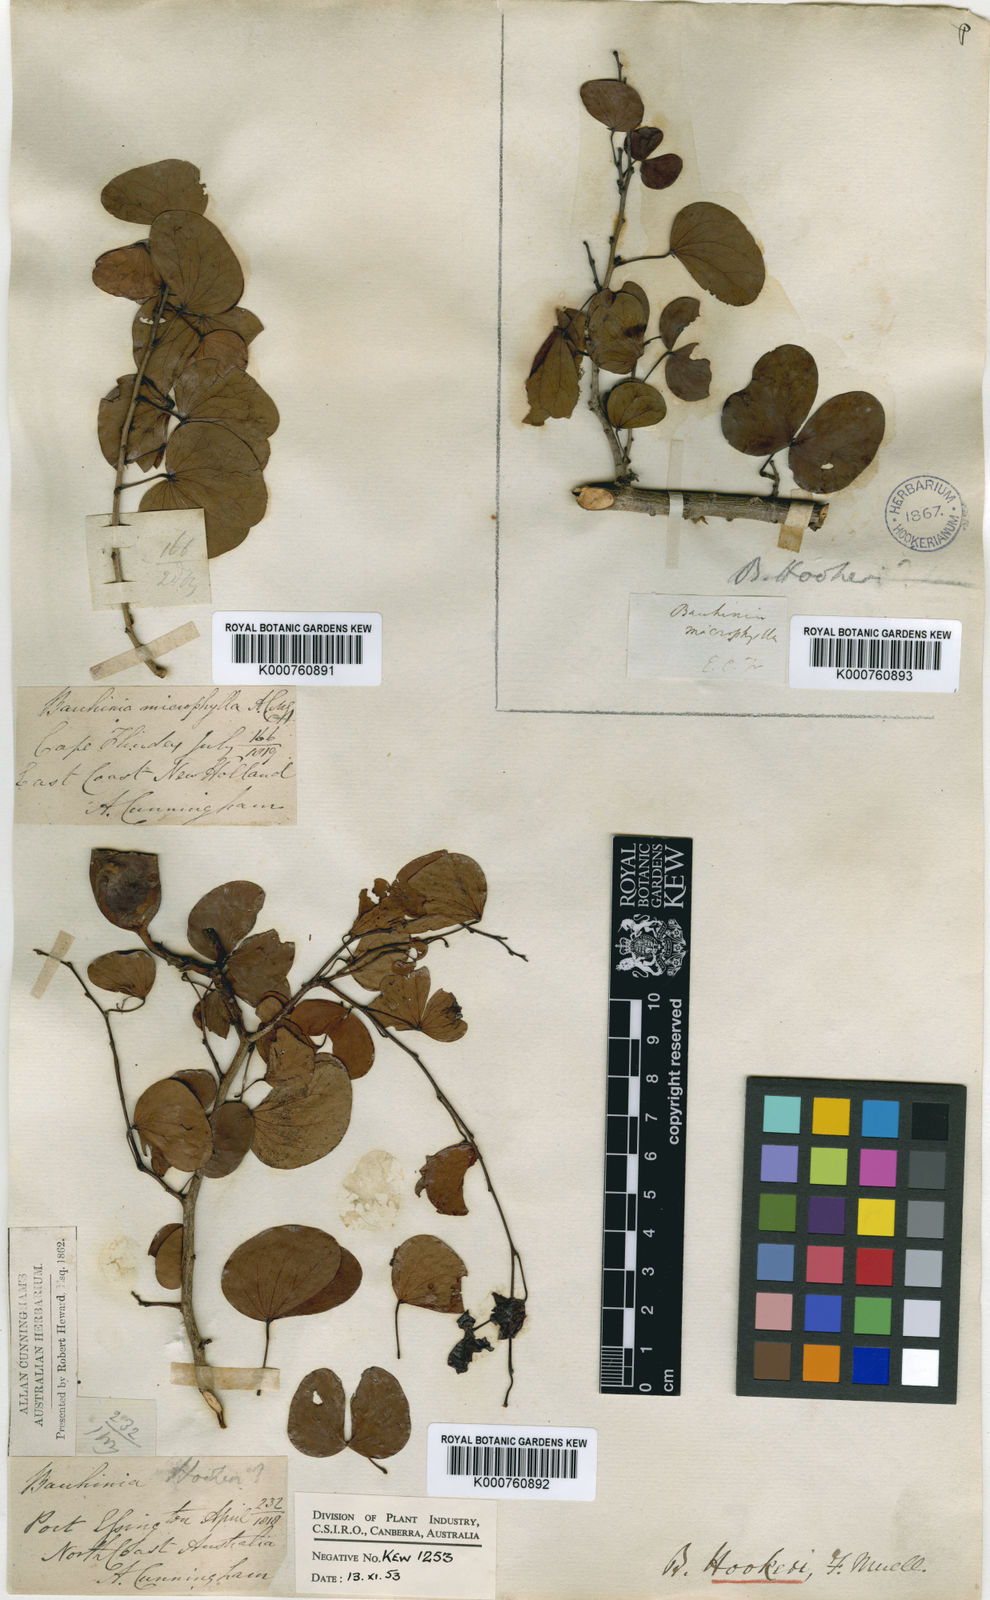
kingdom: Plantae
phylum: Tracheophyta
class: Magnoliopsida
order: Fabales
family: Fabaceae
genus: Lysiphyllum
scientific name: Lysiphyllum hookeri
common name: Hooker's bauhinia
